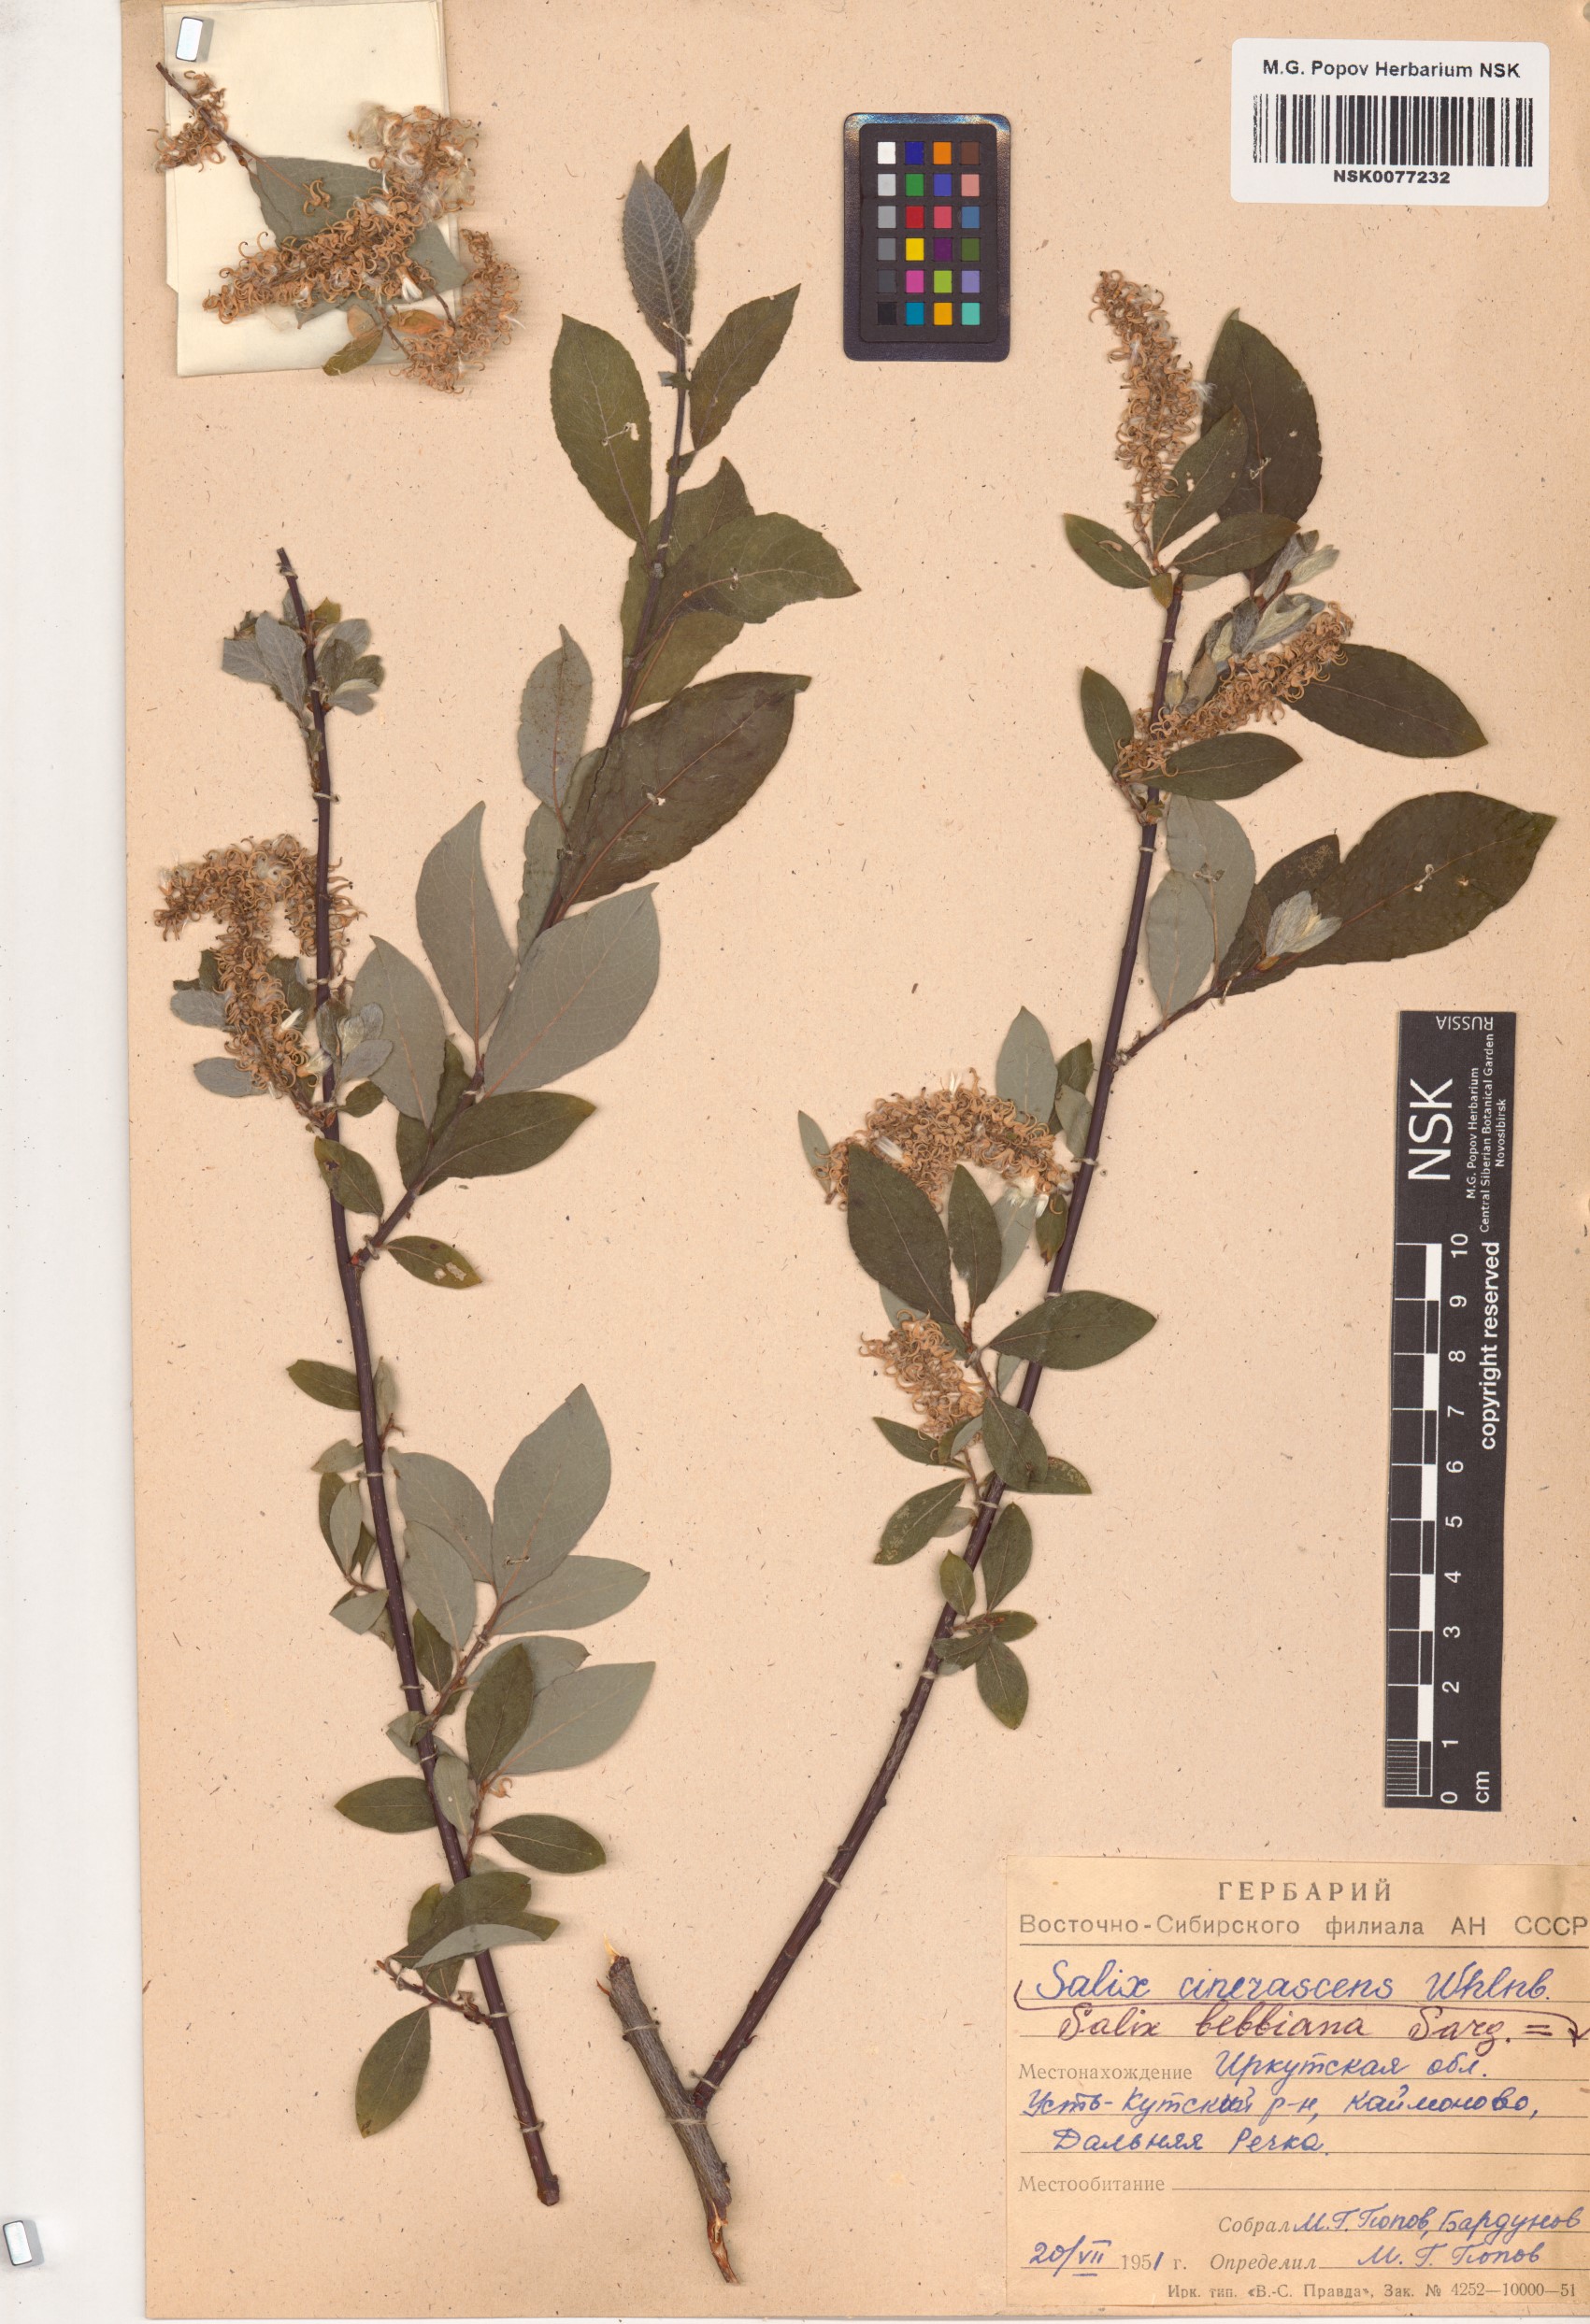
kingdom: Plantae
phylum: Tracheophyta
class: Magnoliopsida
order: Malpighiales
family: Salicaceae
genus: Salix
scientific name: Salix bebbiana
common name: Bebb's willow
